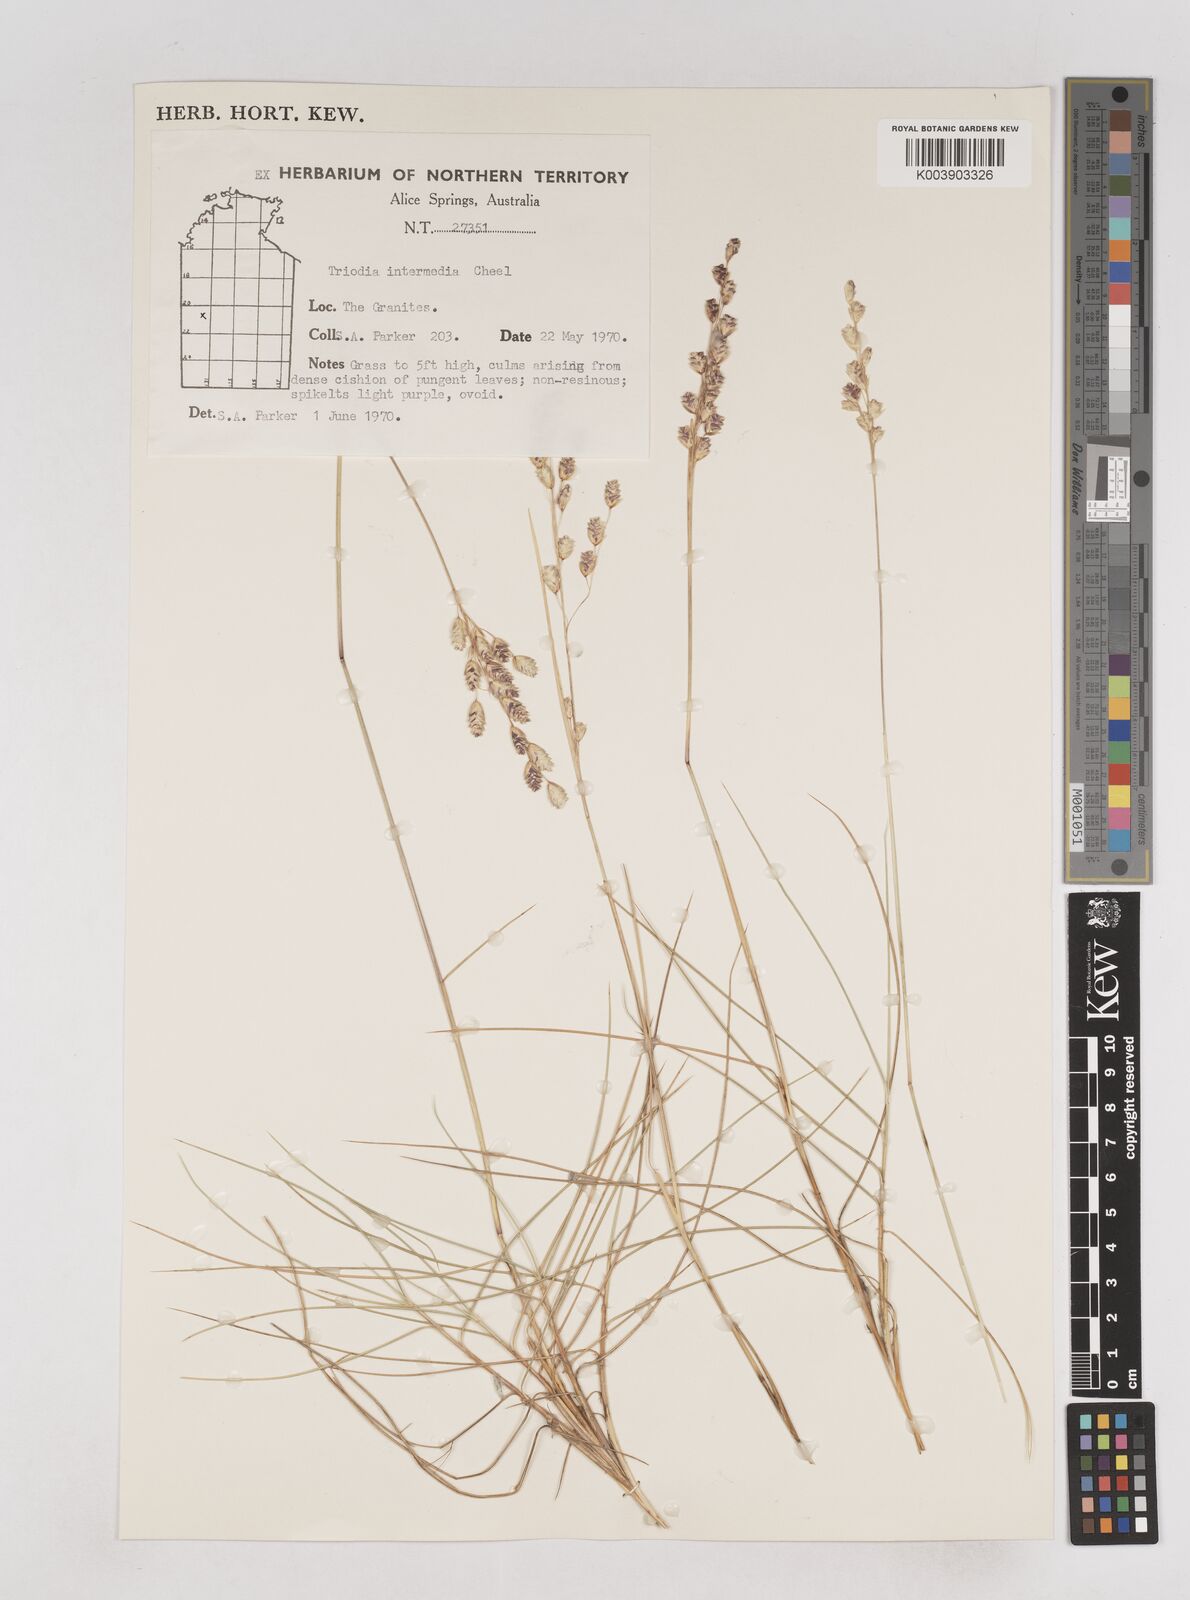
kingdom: Plantae
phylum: Tracheophyta
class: Liliopsida
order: Poales
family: Poaceae
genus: Triodia
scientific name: Triodia intermedia
